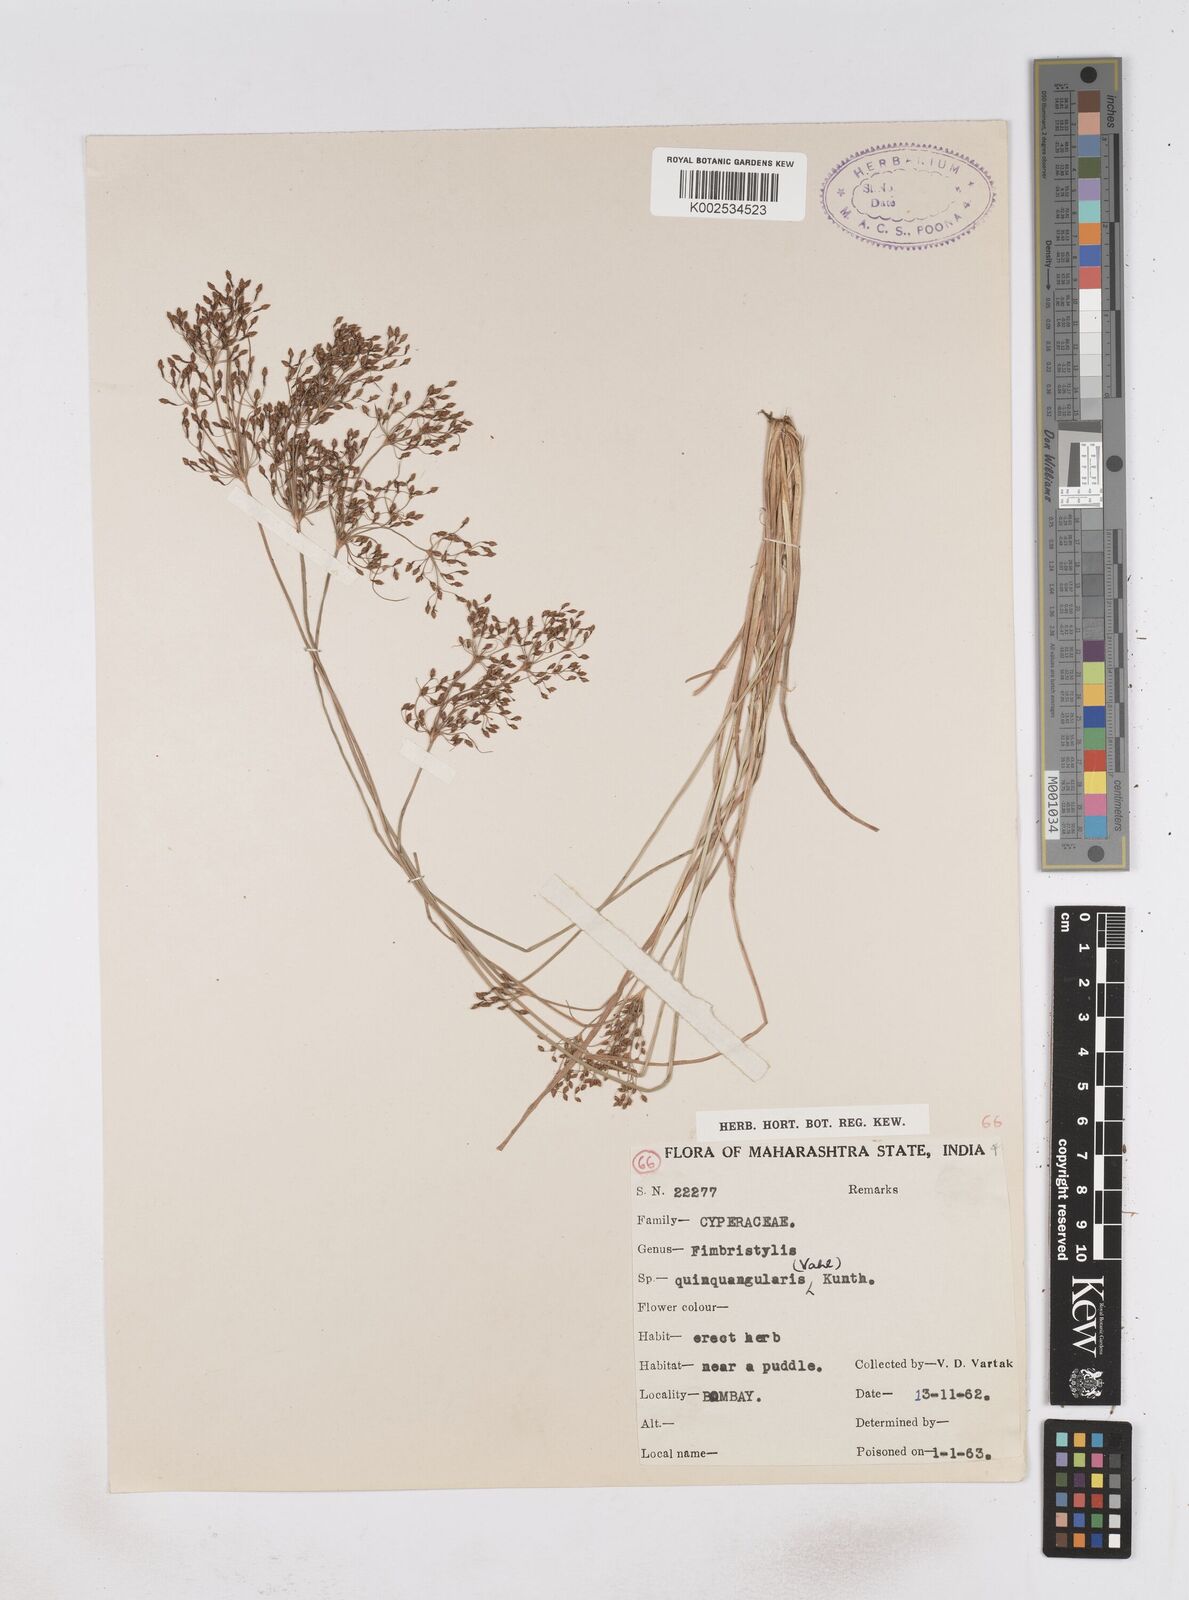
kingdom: Plantae
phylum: Tracheophyta
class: Liliopsida
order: Poales
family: Cyperaceae
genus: Fimbristylis
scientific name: Fimbristylis quinquangularis
